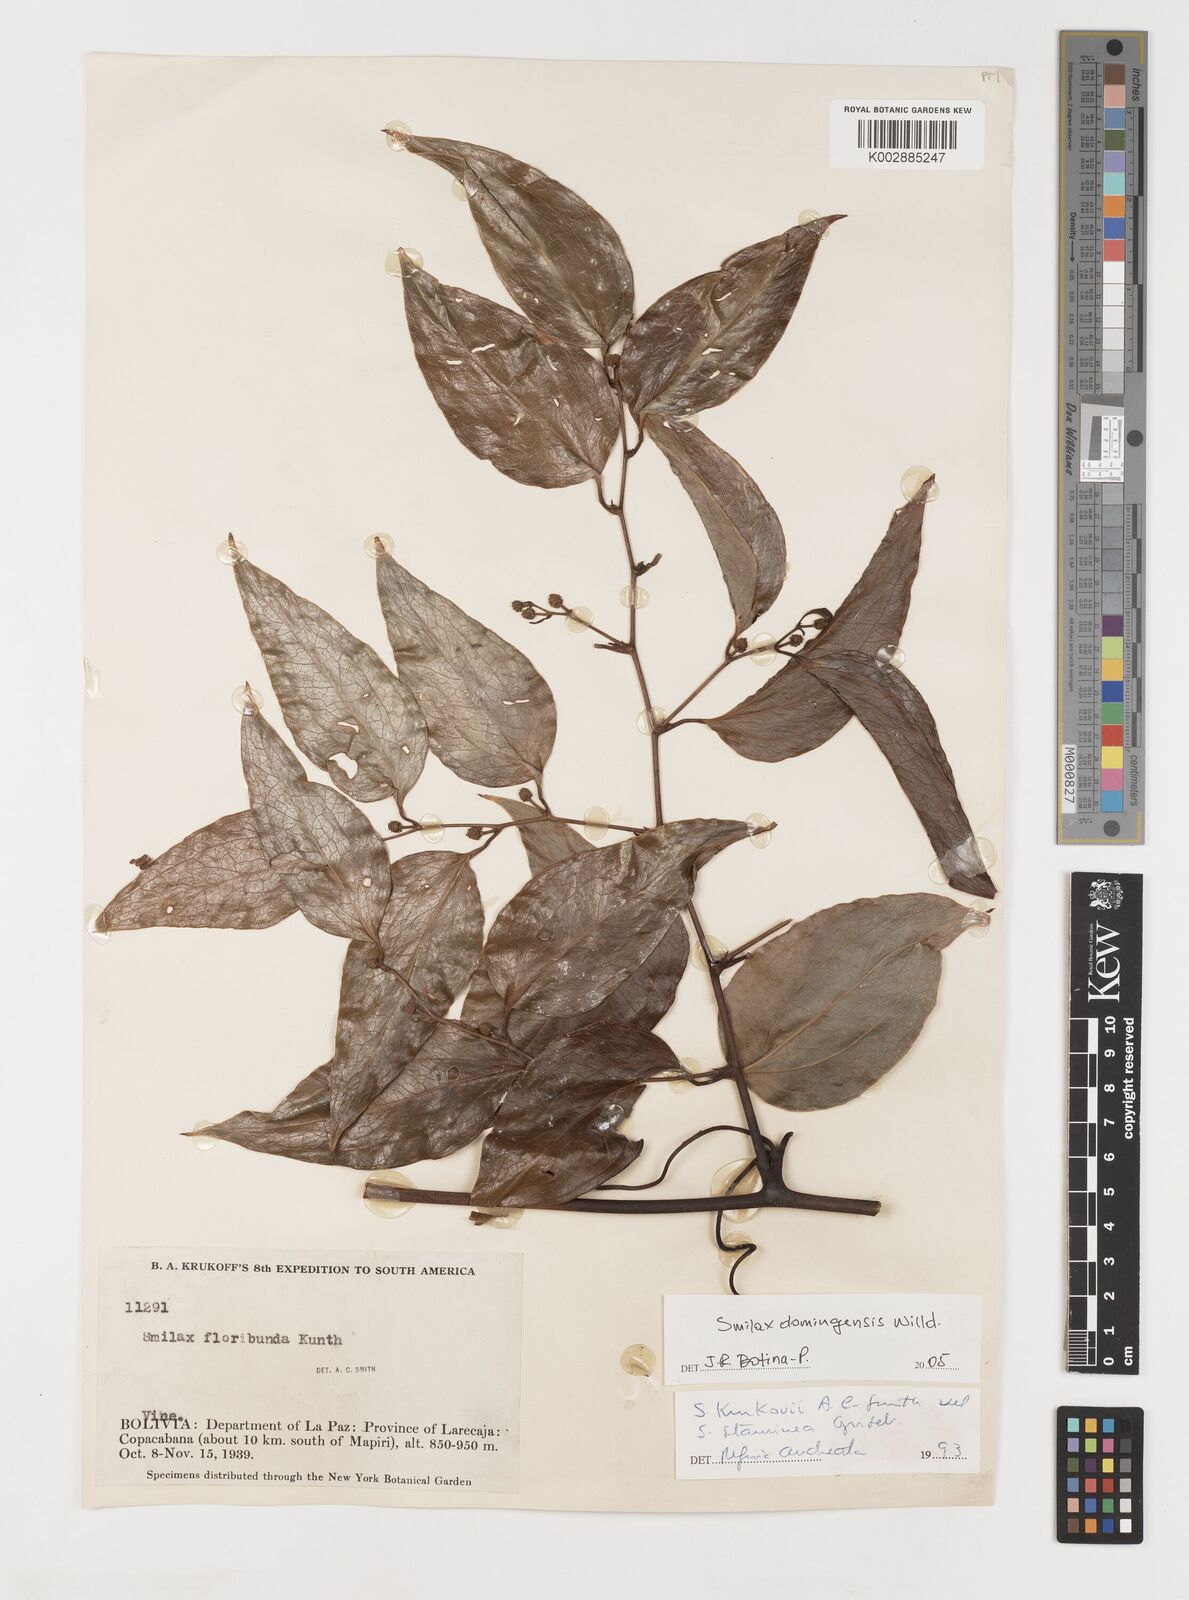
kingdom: Plantae
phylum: Tracheophyta
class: Liliopsida
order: Liliales
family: Smilacaceae
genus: Smilax
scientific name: Smilax domingensis
